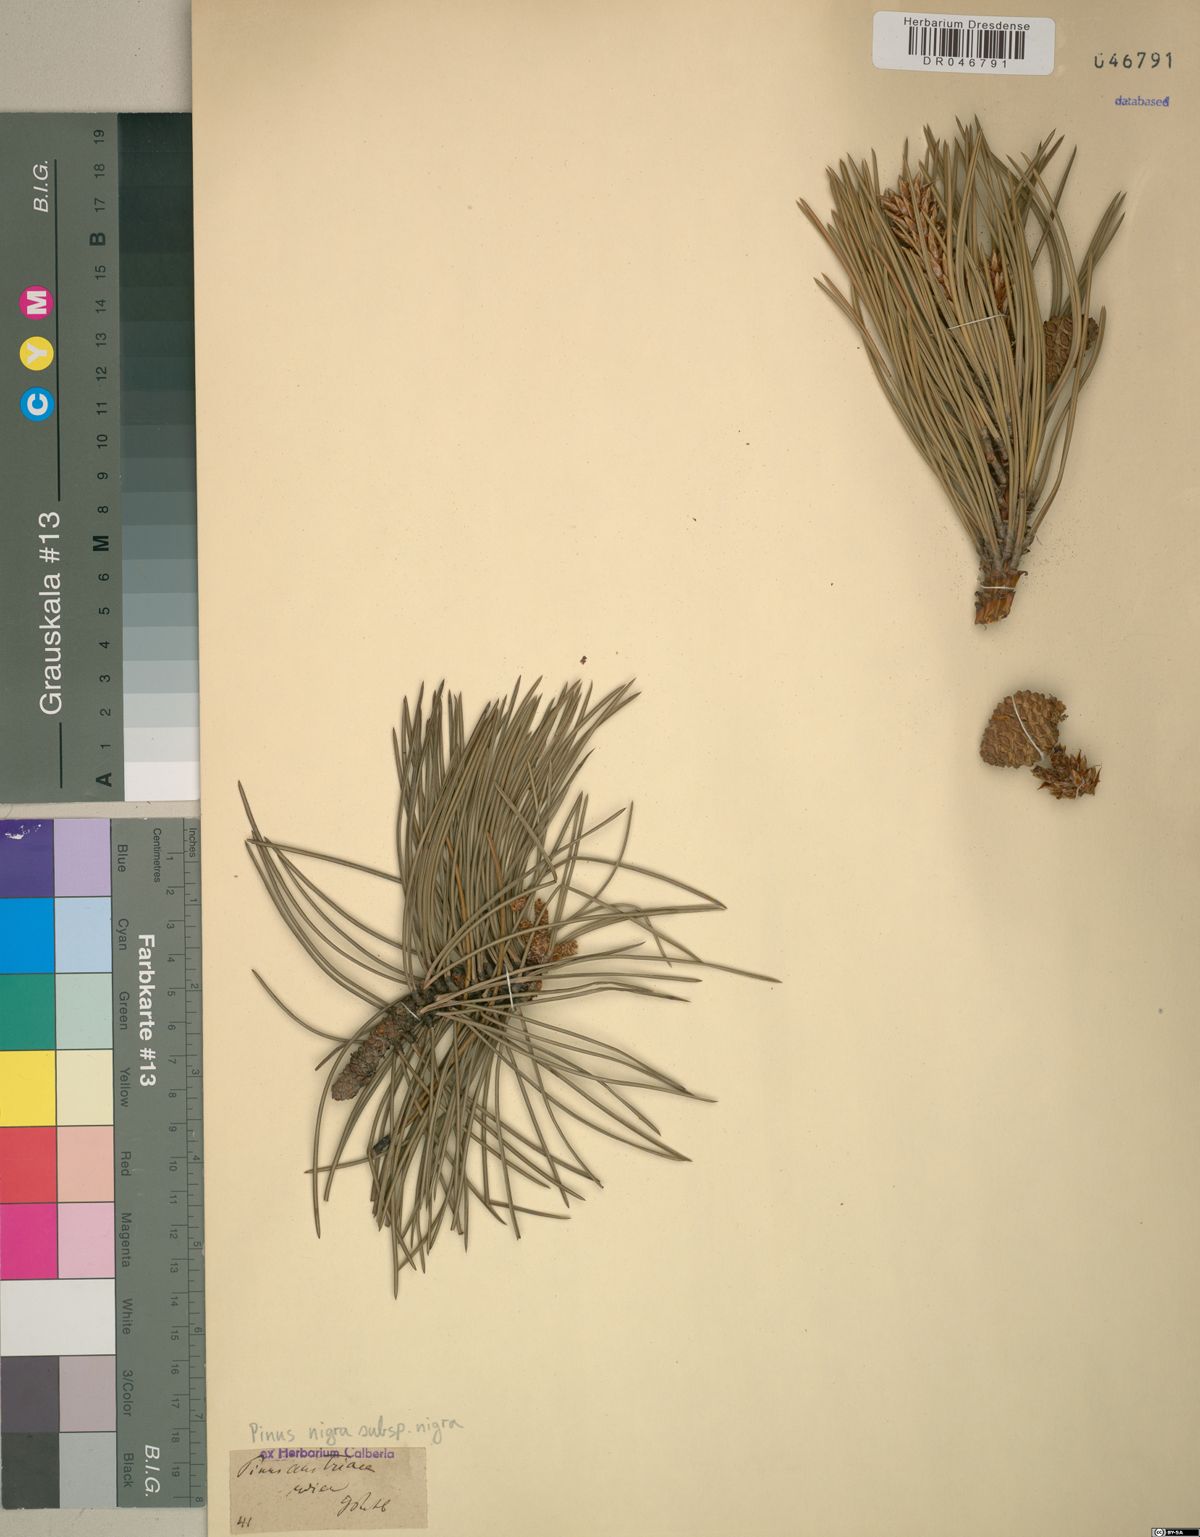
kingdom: Plantae
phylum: Tracheophyta
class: Pinopsida
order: Pinales
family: Pinaceae
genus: Pinus
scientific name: Pinus nigra
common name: Austrian pine
